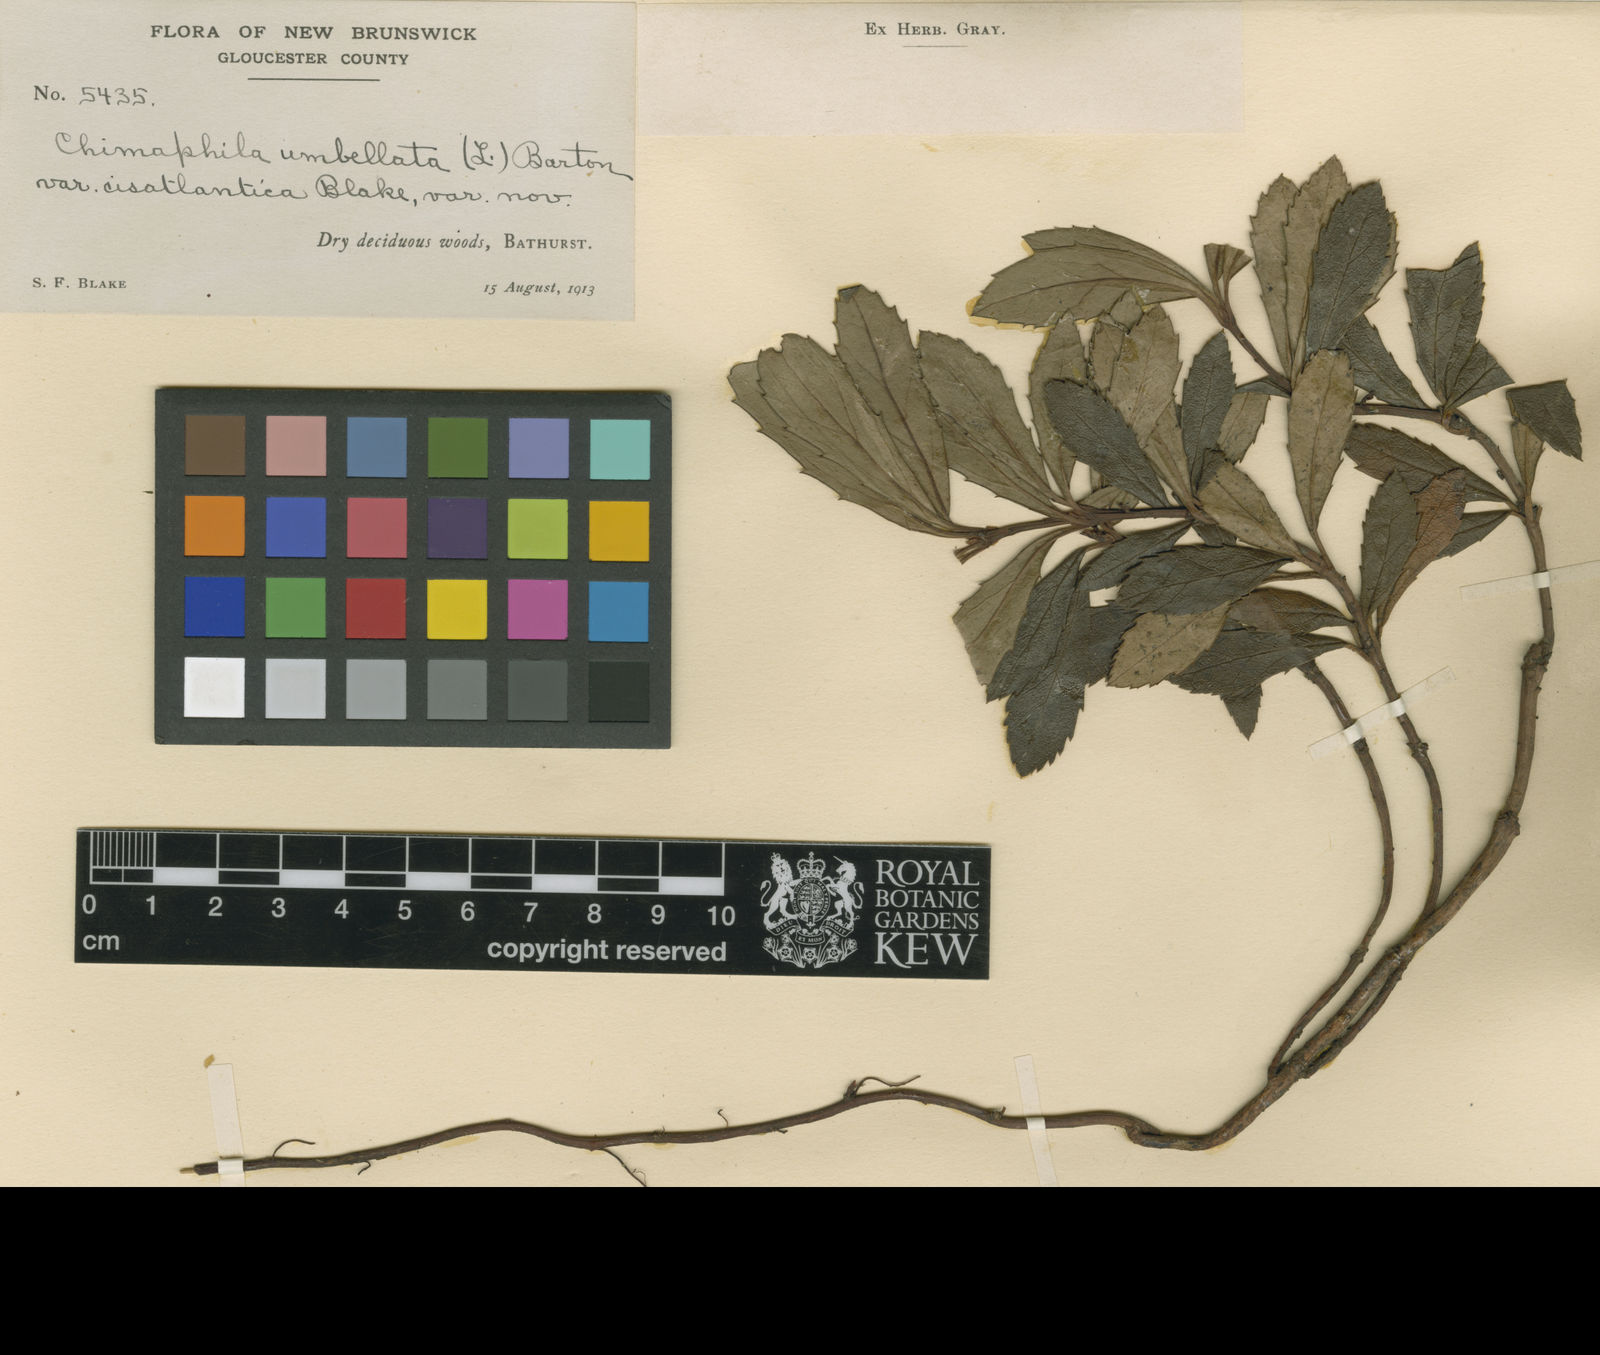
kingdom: Plantae
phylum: Tracheophyta
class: Magnoliopsida
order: Ericales
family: Ericaceae
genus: Chimaphila
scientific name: Chimaphila umbellata
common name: Pipsissewa
